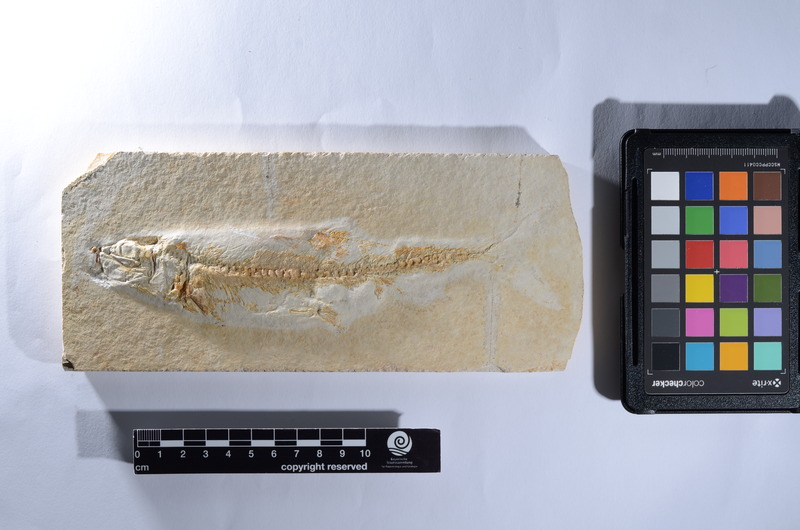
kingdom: Animalia
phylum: Chordata
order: Elopiformes
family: Anaethalionidae
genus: Anaethalion
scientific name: Anaethalion knorri
